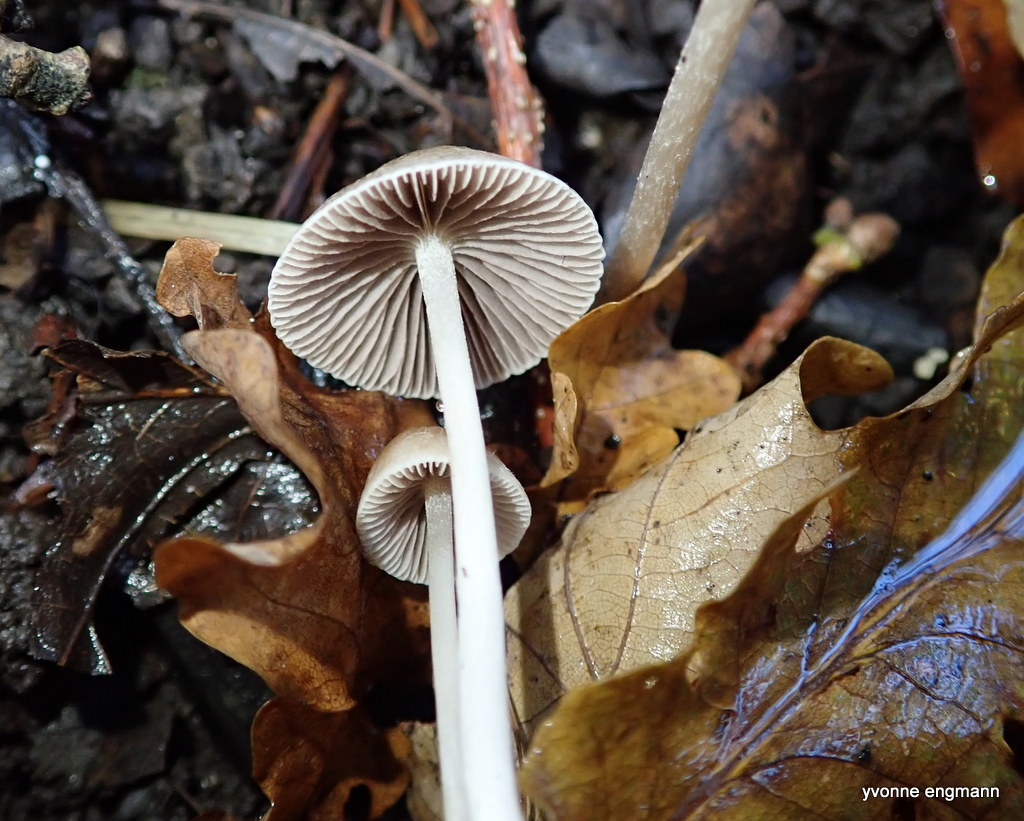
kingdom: Fungi
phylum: Basidiomycota
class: Agaricomycetes
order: Agaricales
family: Psathyrellaceae
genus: Psathyrella
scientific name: Psathyrella
